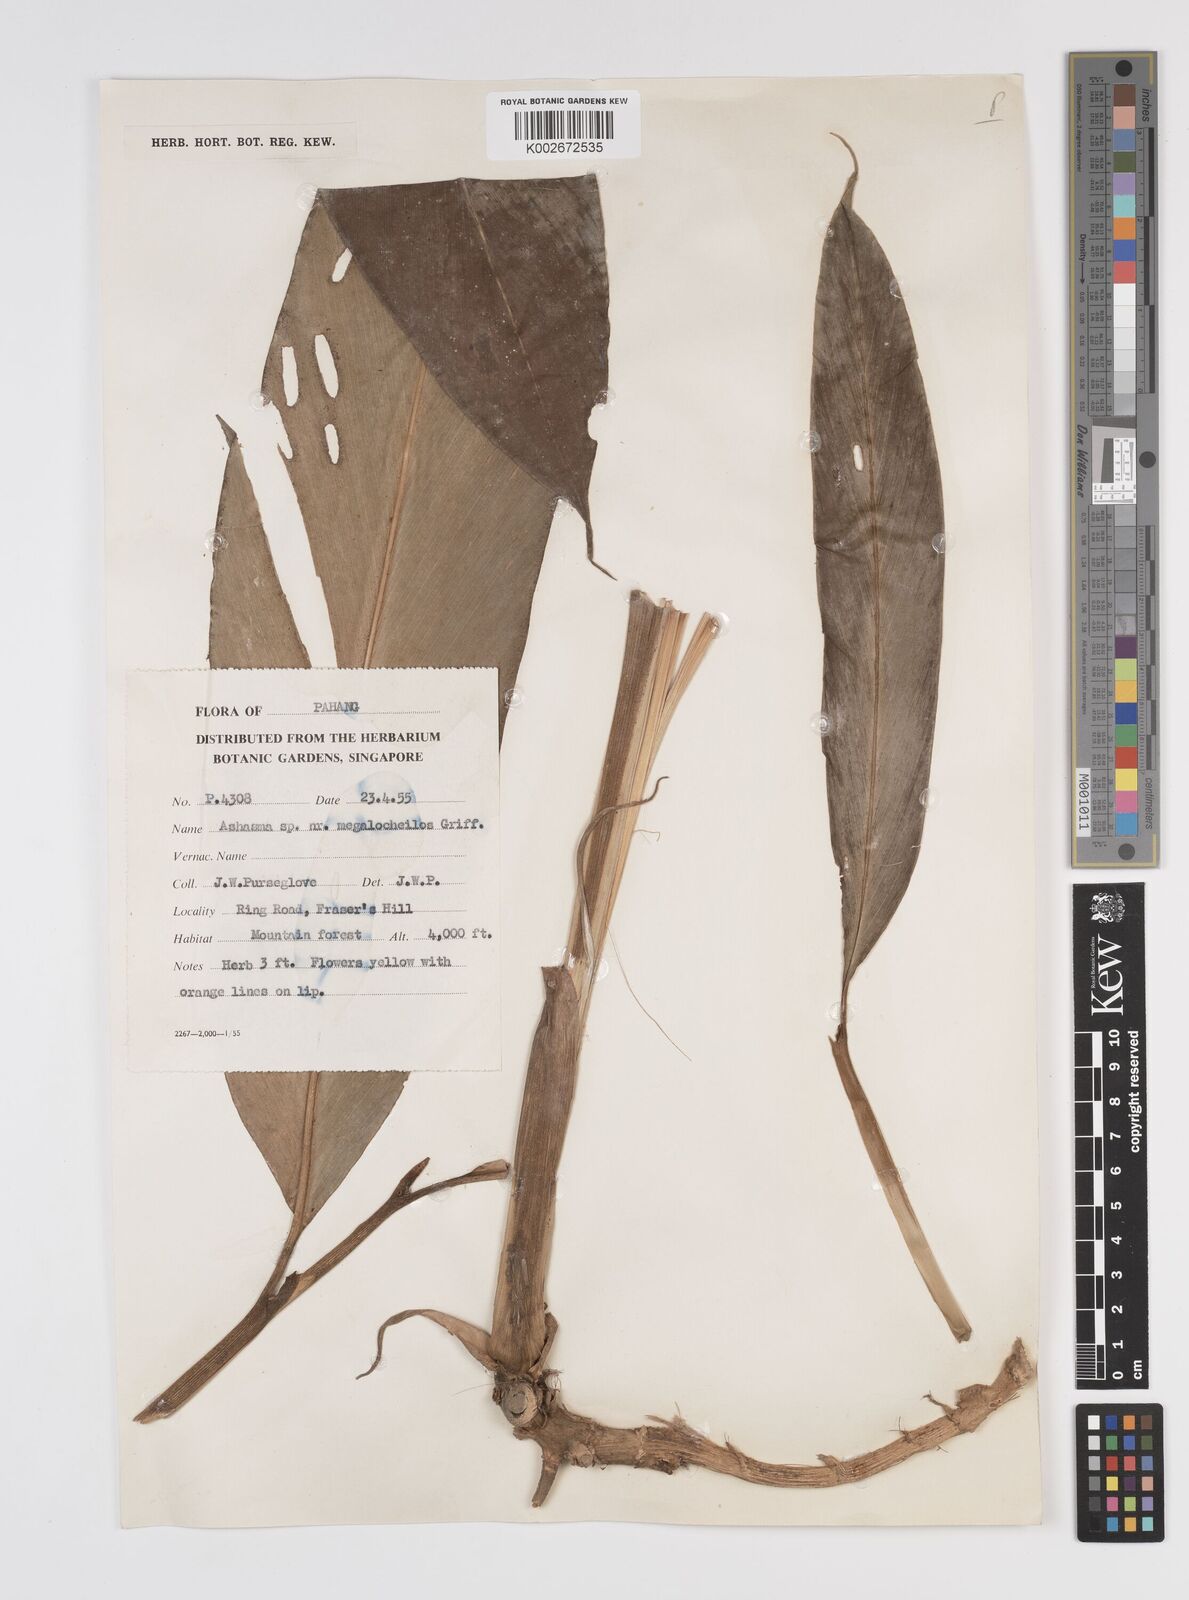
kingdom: Plantae
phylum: Tracheophyta
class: Liliopsida
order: Zingiberales
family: Zingiberaceae
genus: Etlingera
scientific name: Etlingera
